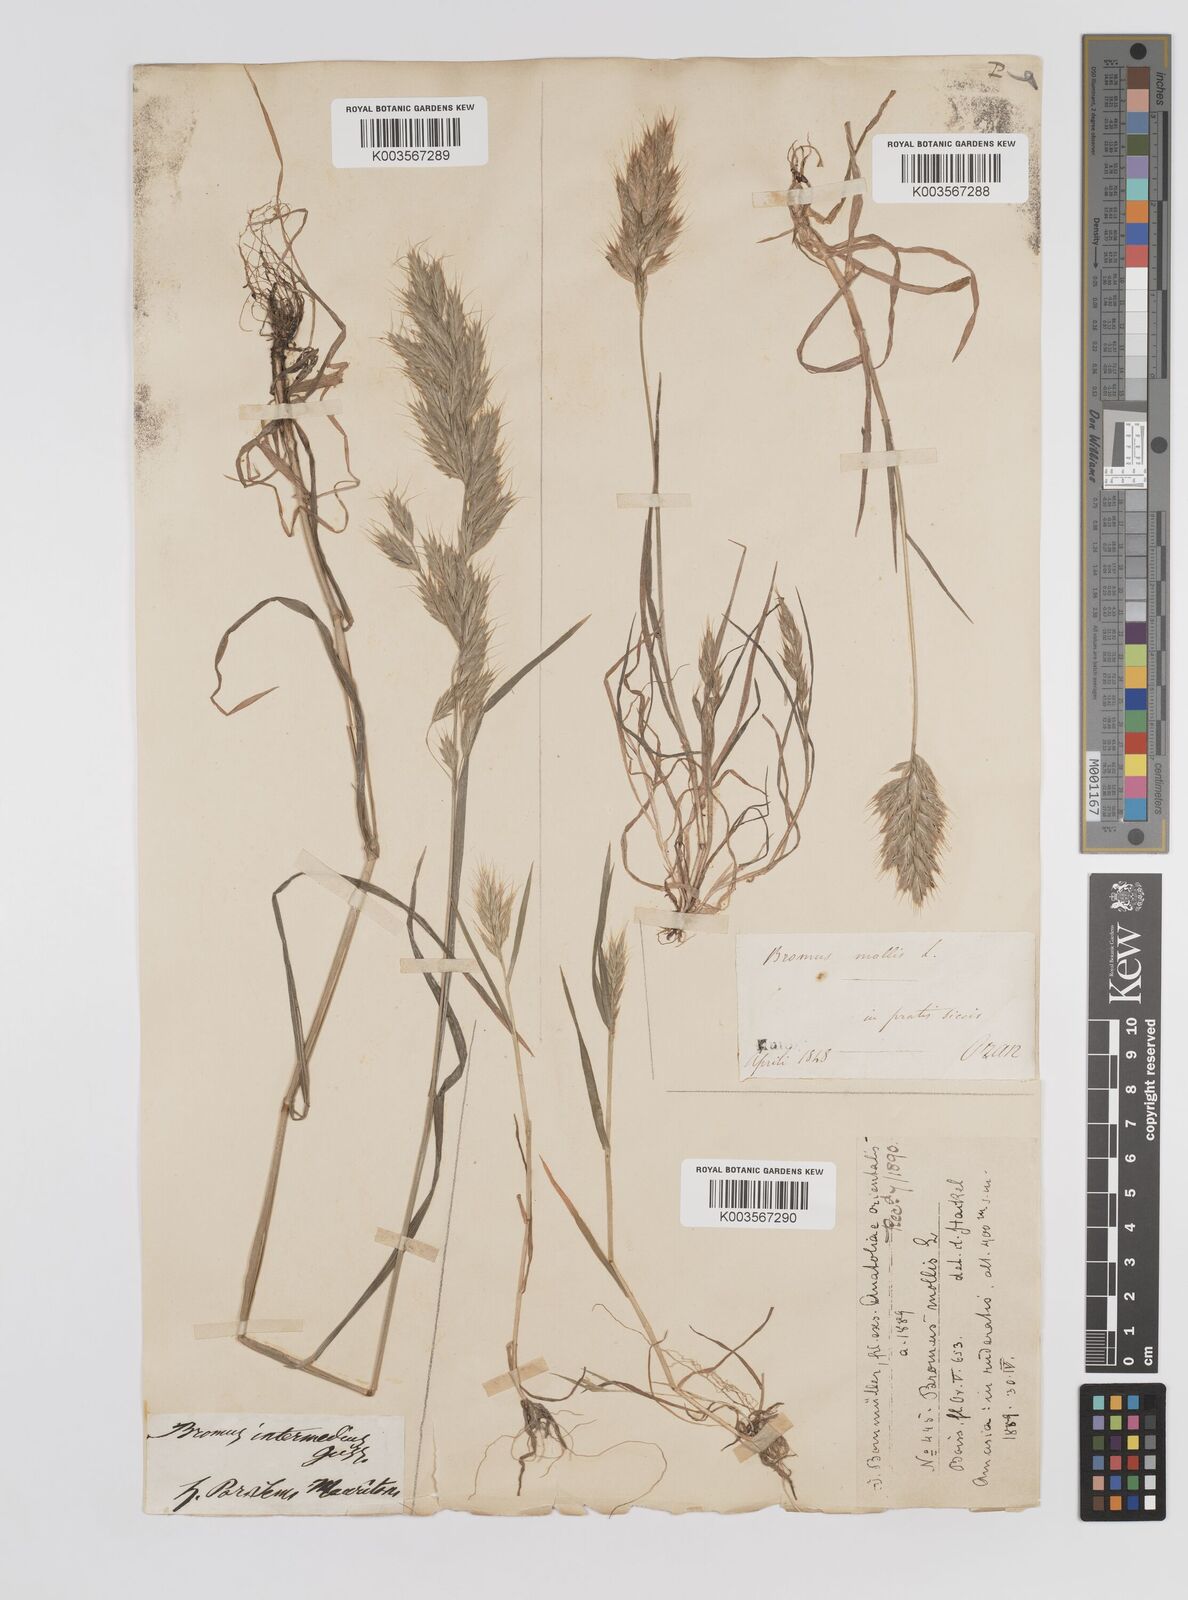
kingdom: Plantae
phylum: Tracheophyta
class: Liliopsida
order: Poales
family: Poaceae
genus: Bromus
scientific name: Bromus hordeaceus
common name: Soft brome
